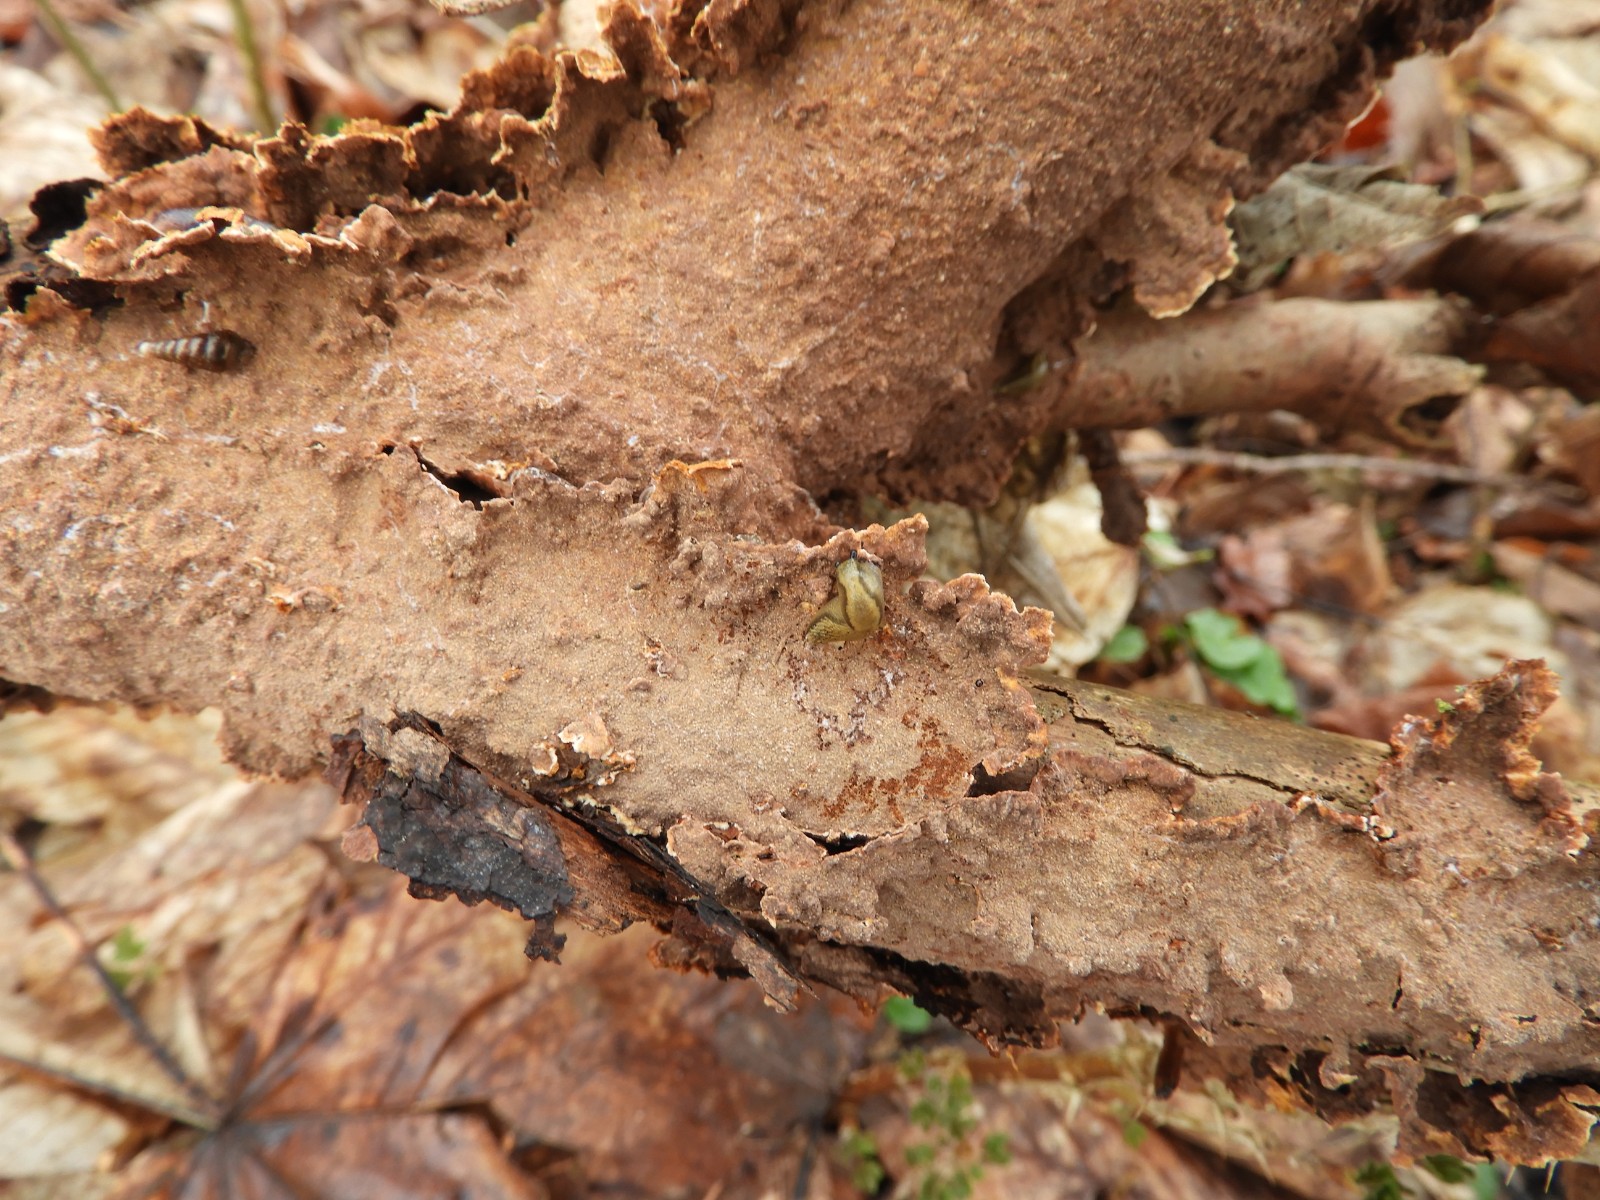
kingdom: Fungi
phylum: Basidiomycota
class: Agaricomycetes
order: Hymenochaetales
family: Hymenochaetaceae
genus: Hydnoporia
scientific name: Hydnoporia tabacina
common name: tobaksbrun ruslædersvamp
